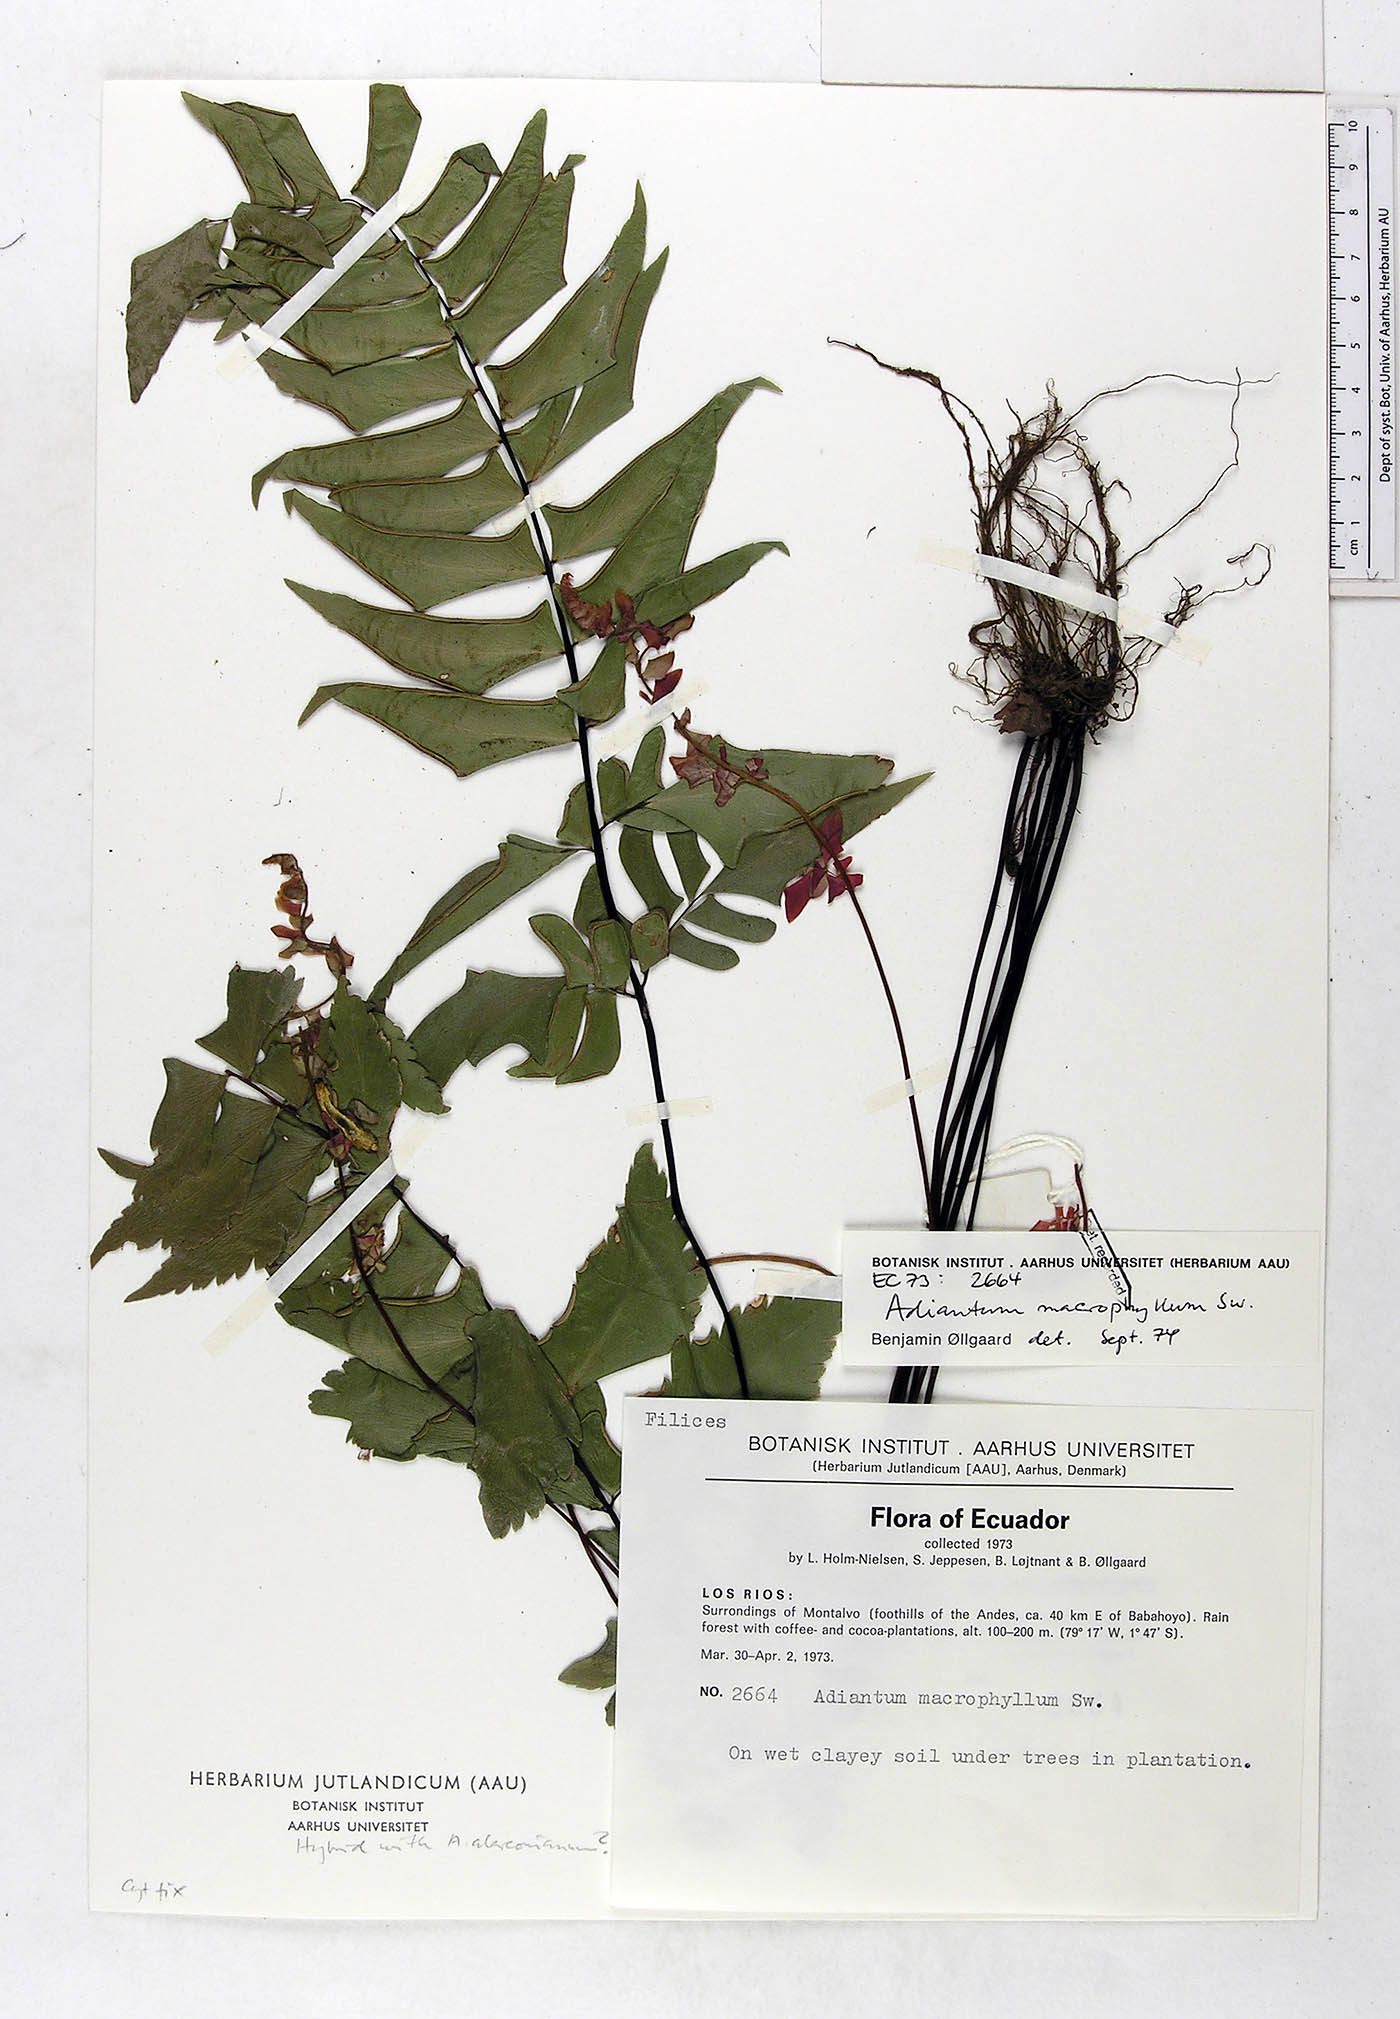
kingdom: Plantae
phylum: Tracheophyta
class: Polypodiopsida
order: Polypodiales
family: Pteridaceae
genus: Adiantum
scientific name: Adiantum macrophyllum
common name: Largeleaf maidenhair
